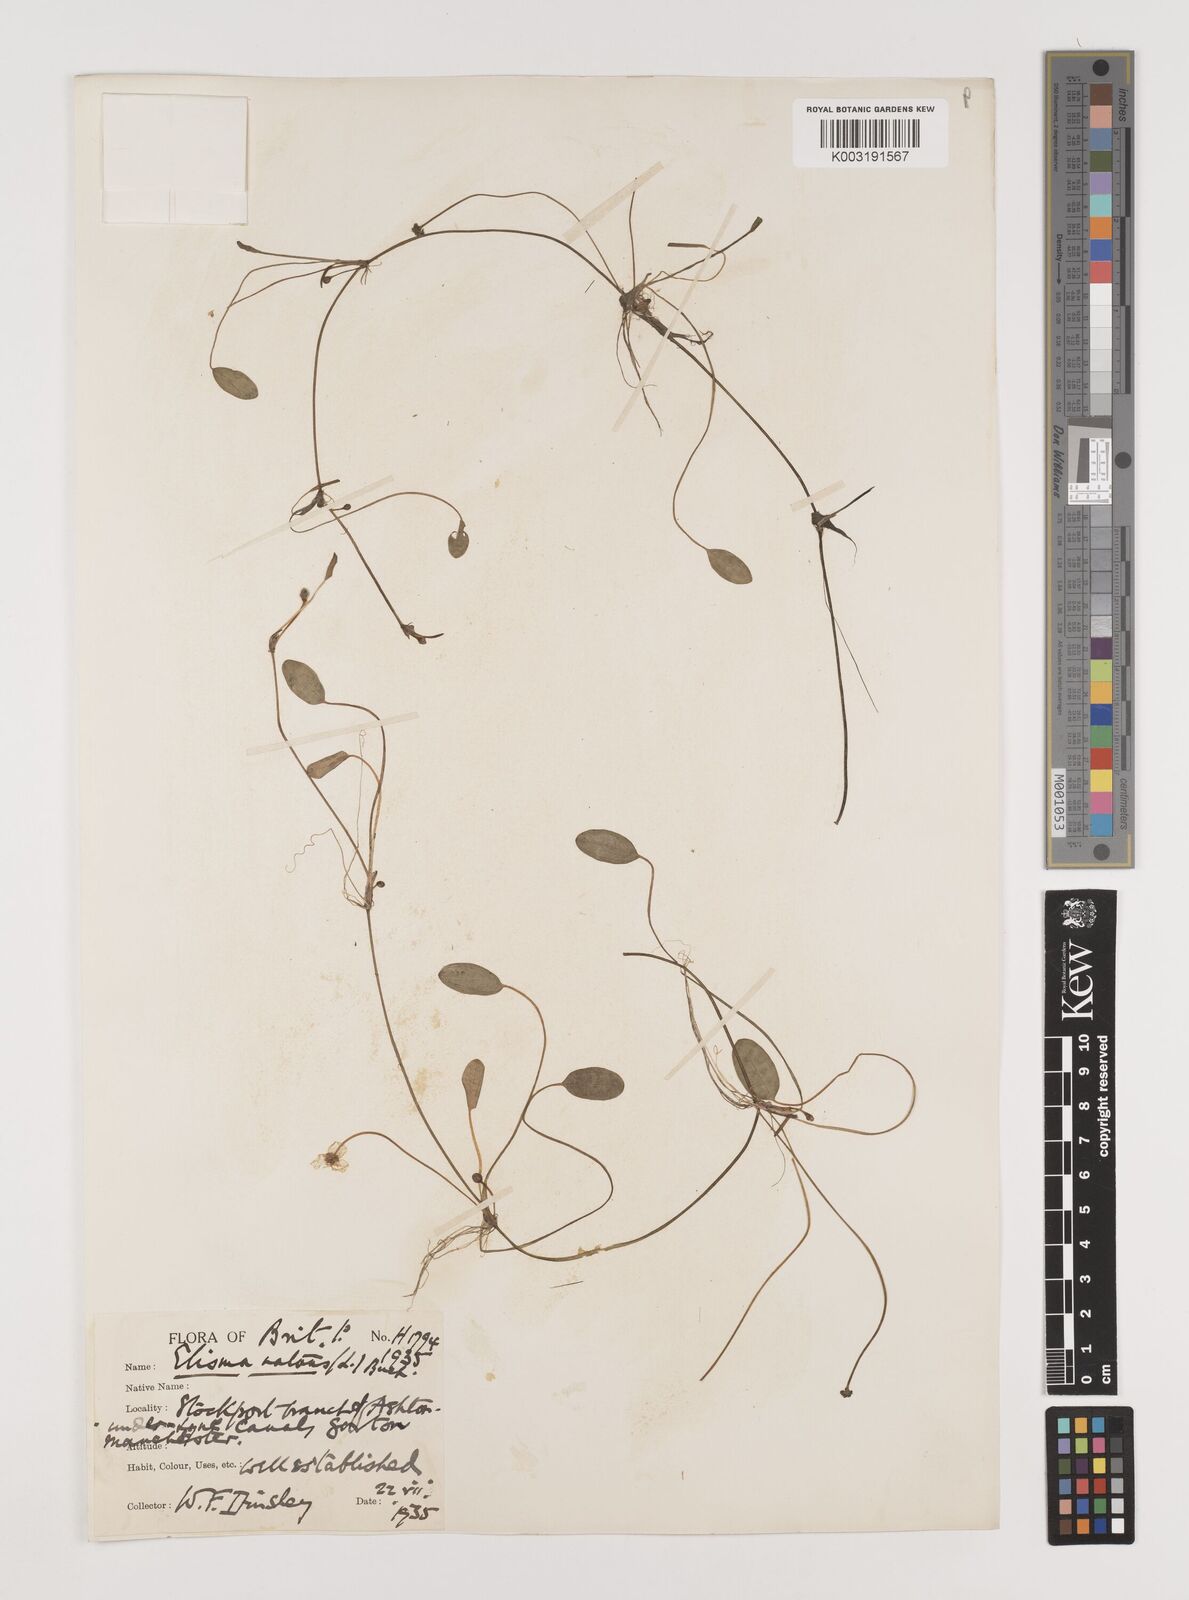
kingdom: Plantae
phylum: Tracheophyta
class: Liliopsida
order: Alismatales
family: Alismataceae
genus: Luronium
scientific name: Luronium natans
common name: Floating water-plantain
